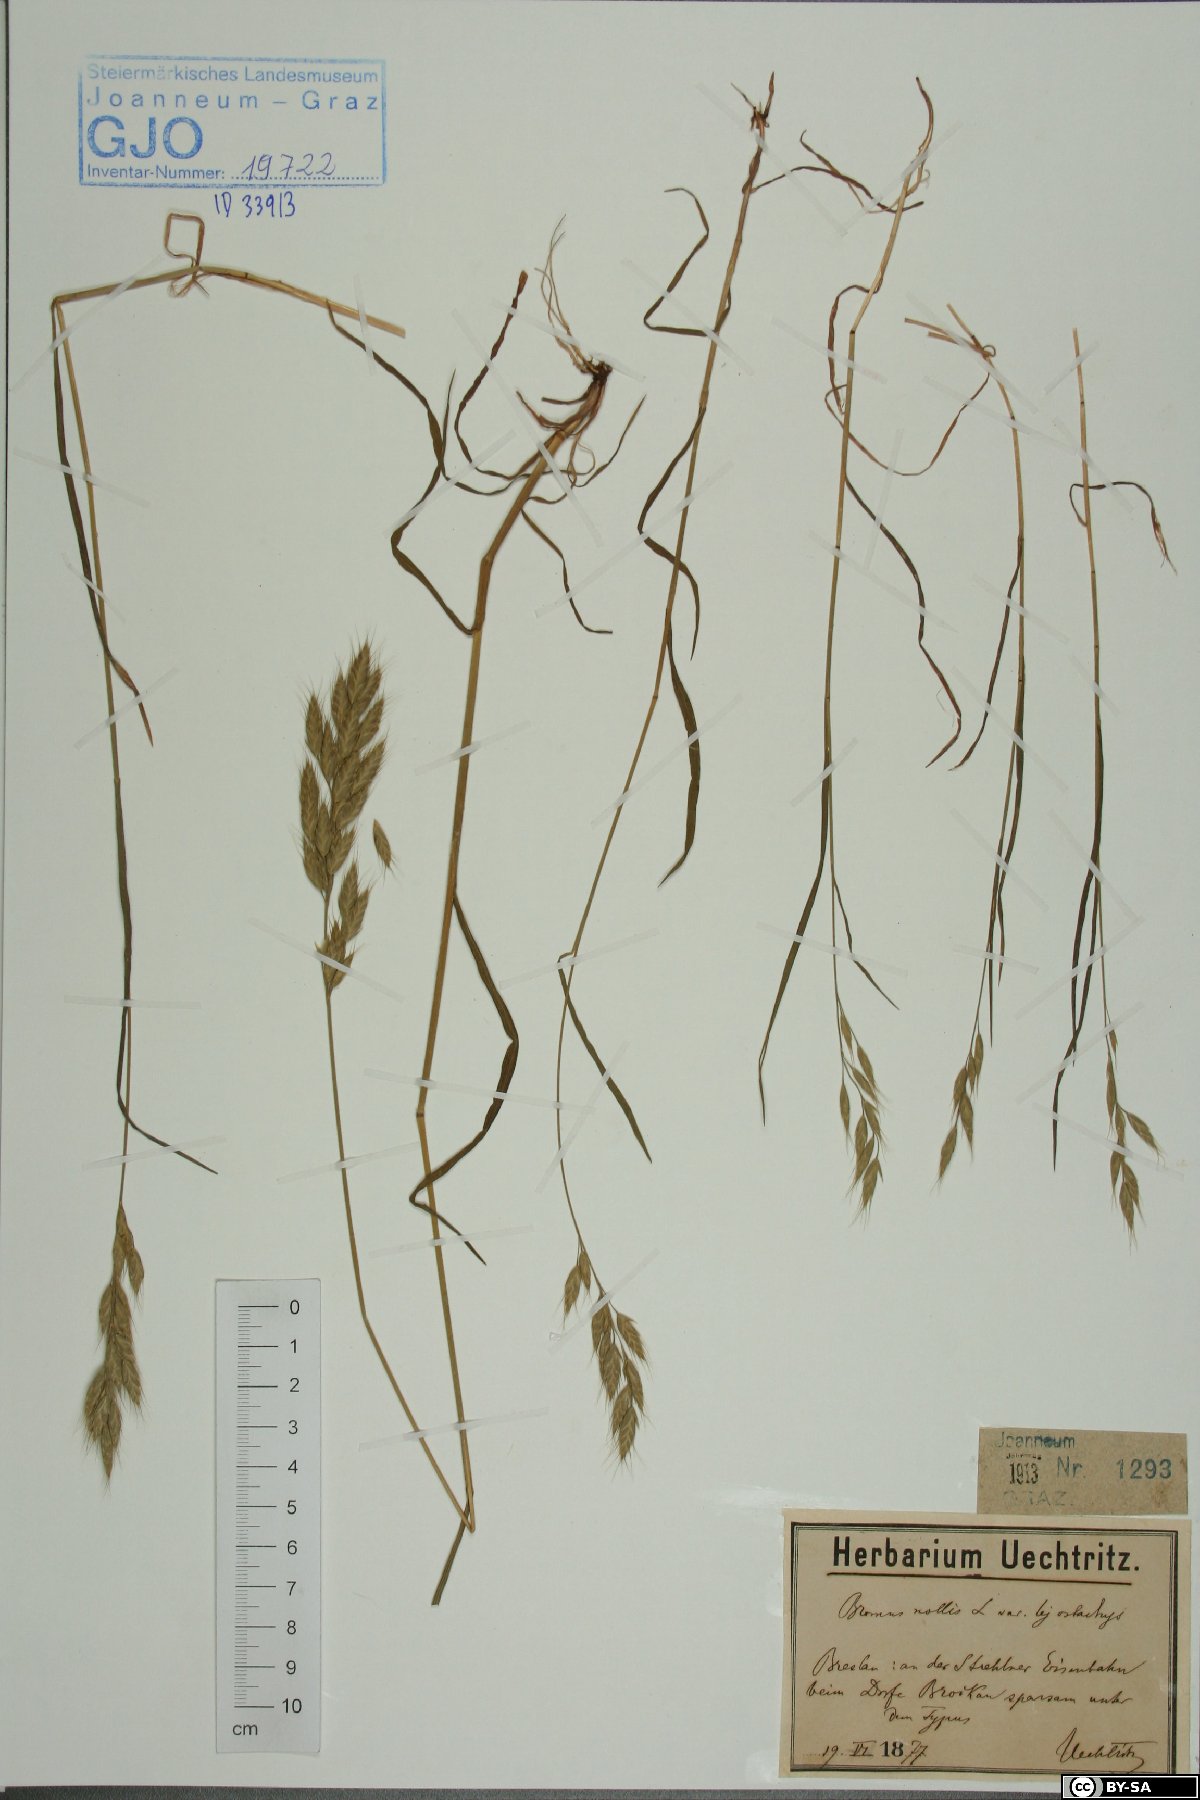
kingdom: Plantae
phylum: Tracheophyta
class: Liliopsida
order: Poales
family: Poaceae
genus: Bromus
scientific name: Bromus racemosus
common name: Bald brome
